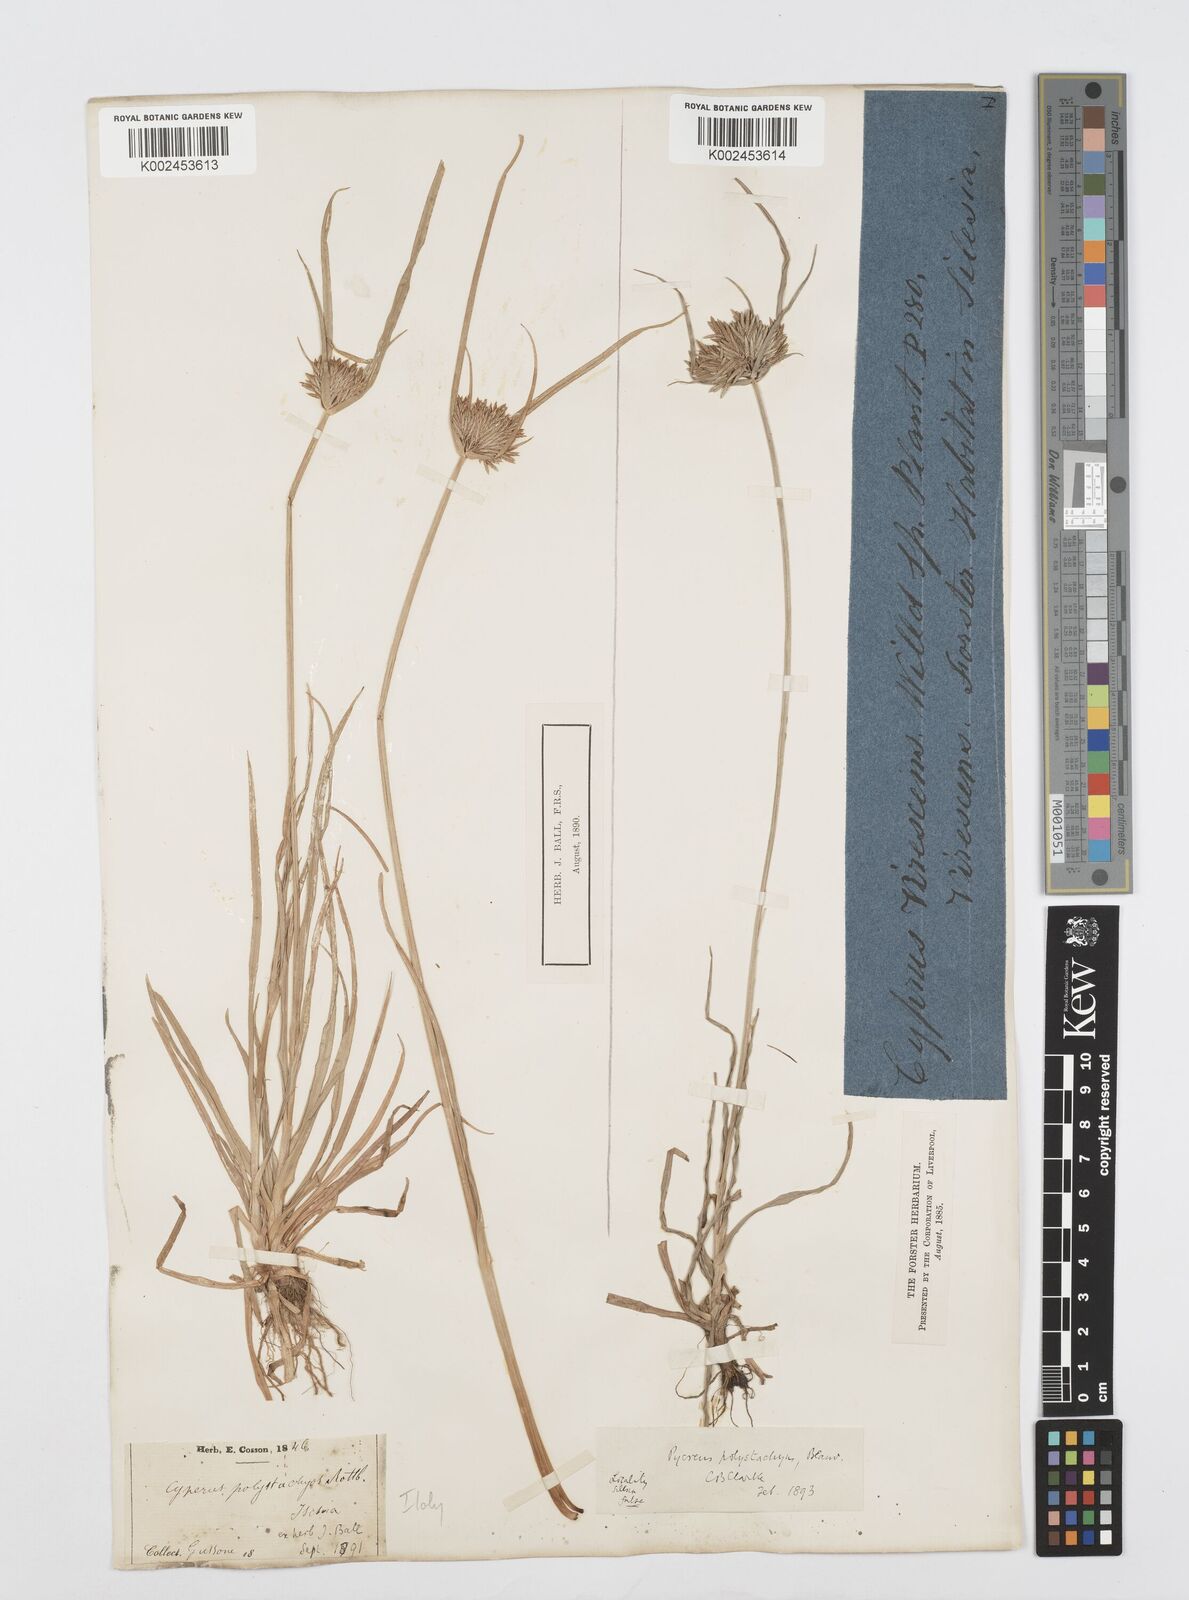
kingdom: Plantae
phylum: Tracheophyta
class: Liliopsida
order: Poales
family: Cyperaceae
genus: Cyperus
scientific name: Cyperus polystachyos
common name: Bunchy flat sedge
